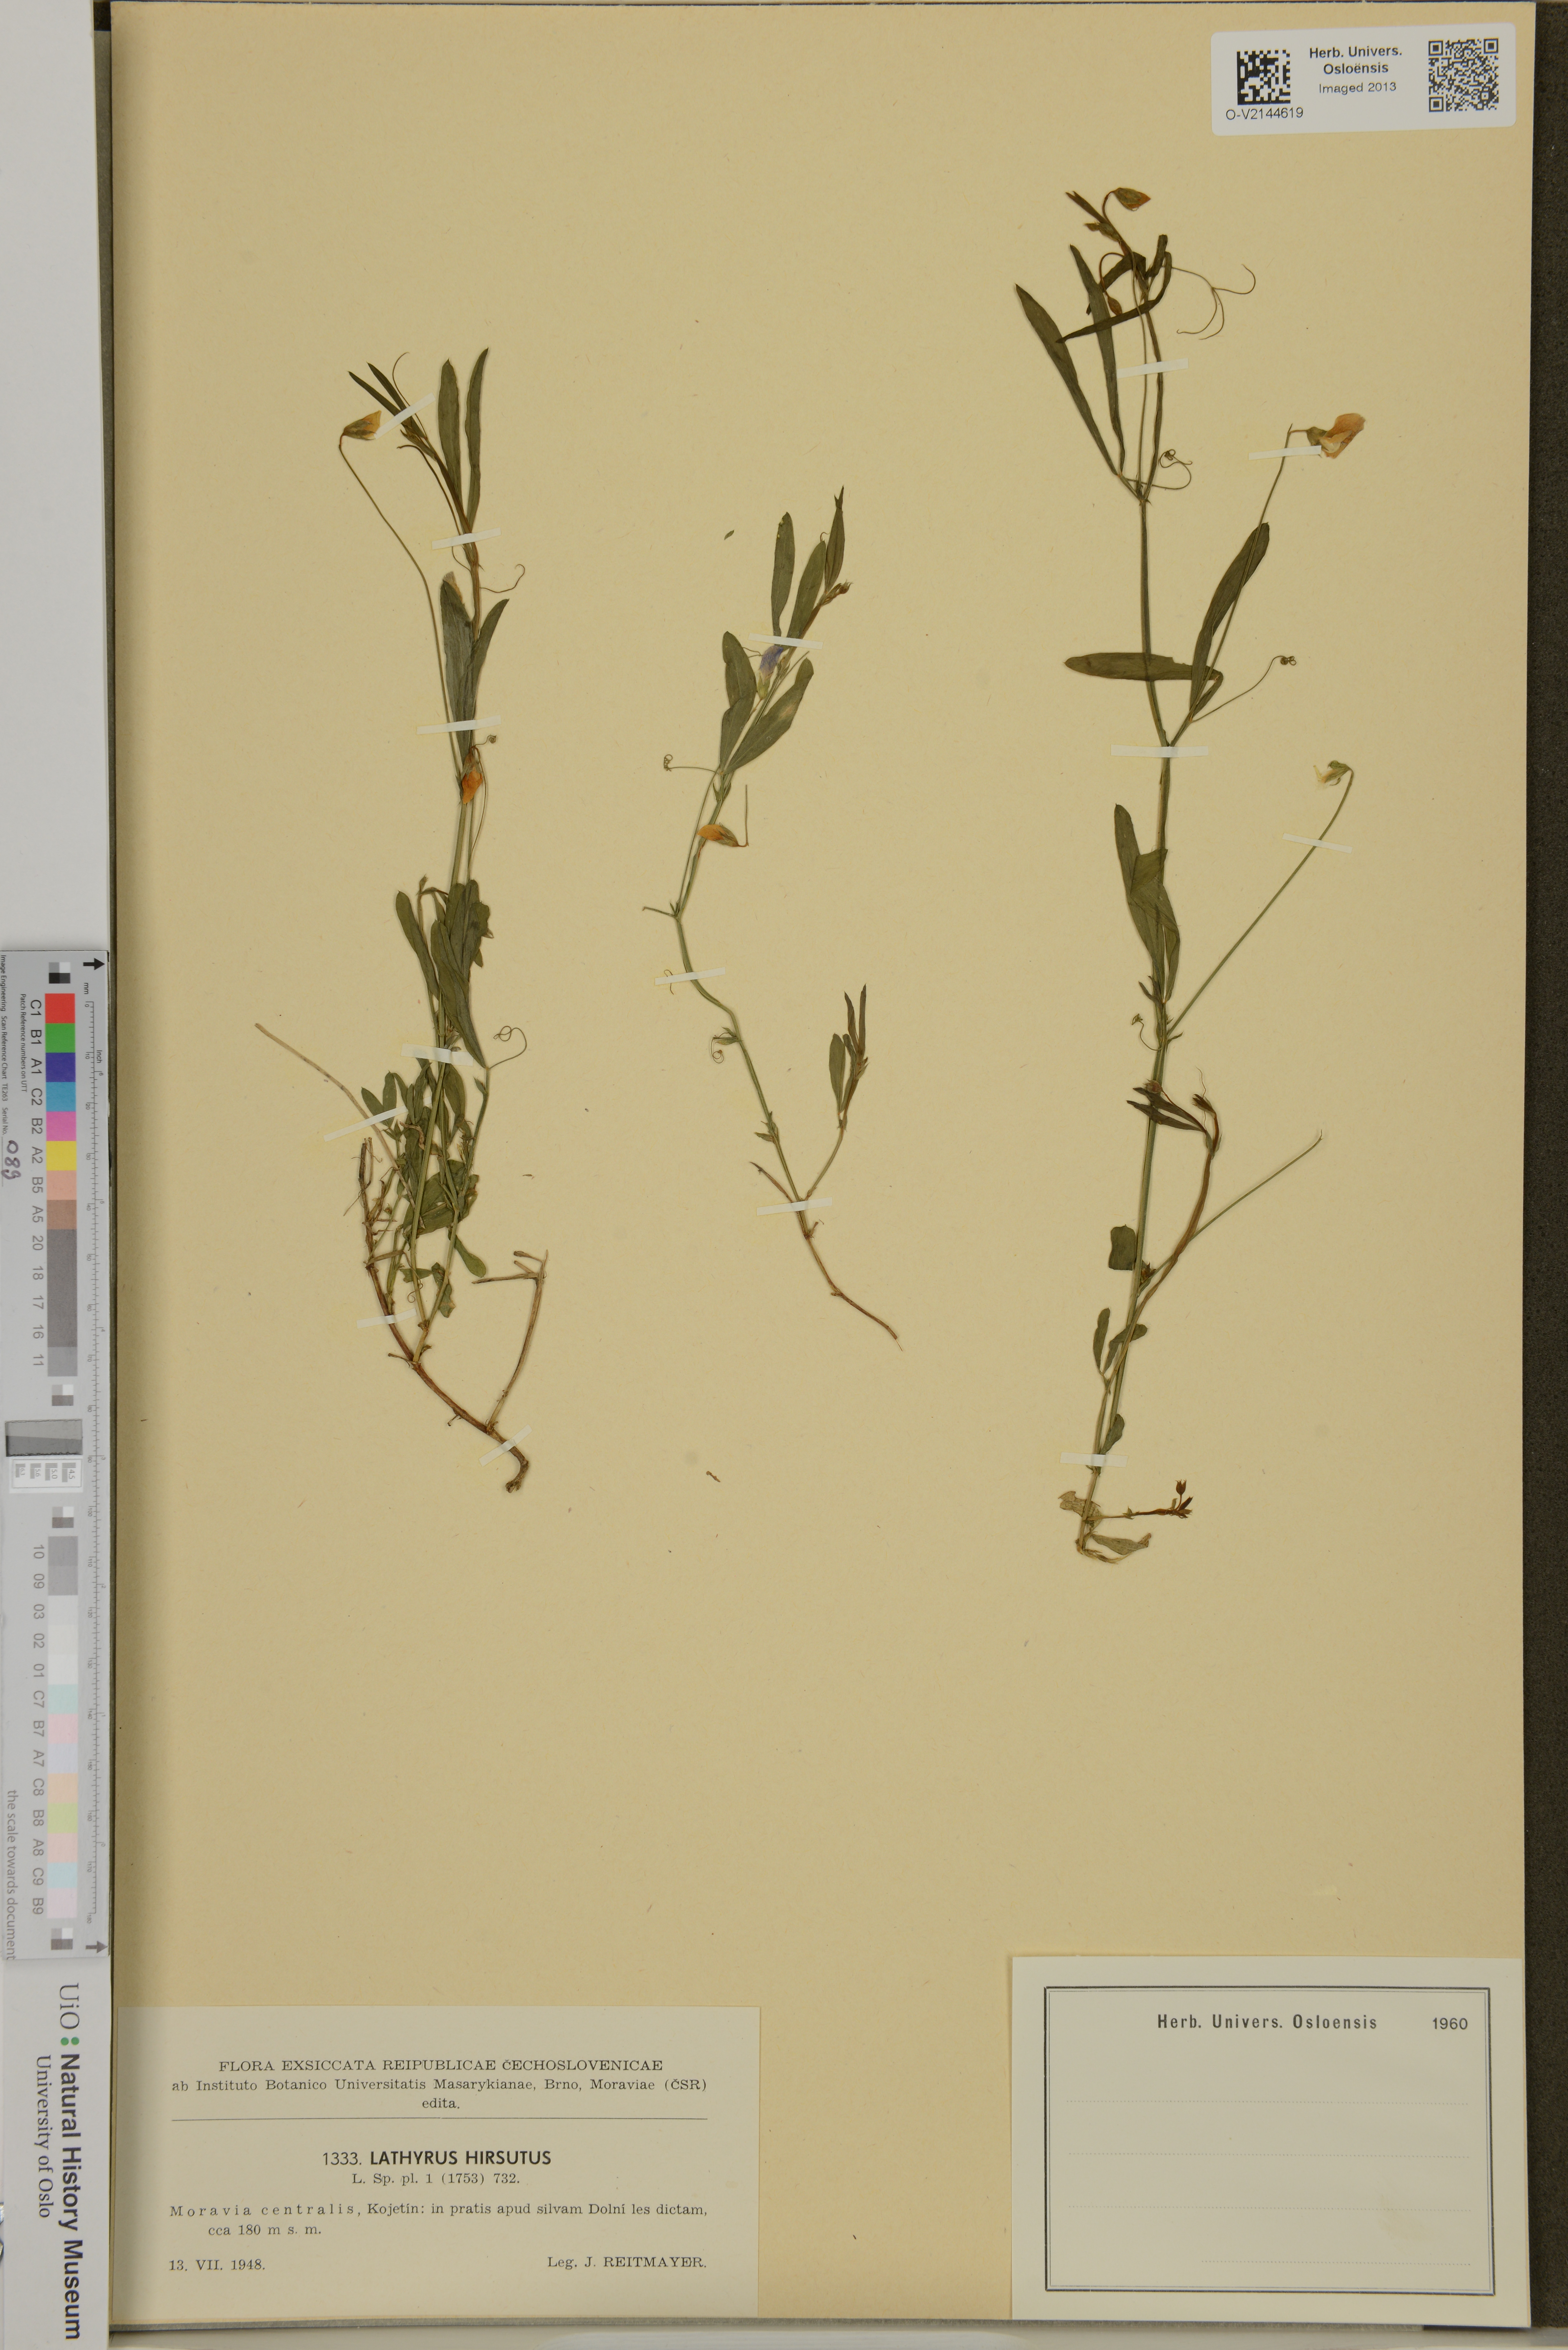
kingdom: Plantae
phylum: Tracheophyta
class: Magnoliopsida
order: Fabales
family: Fabaceae
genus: Lathyrus
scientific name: Lathyrus hirsutus
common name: Hairy vetchling
